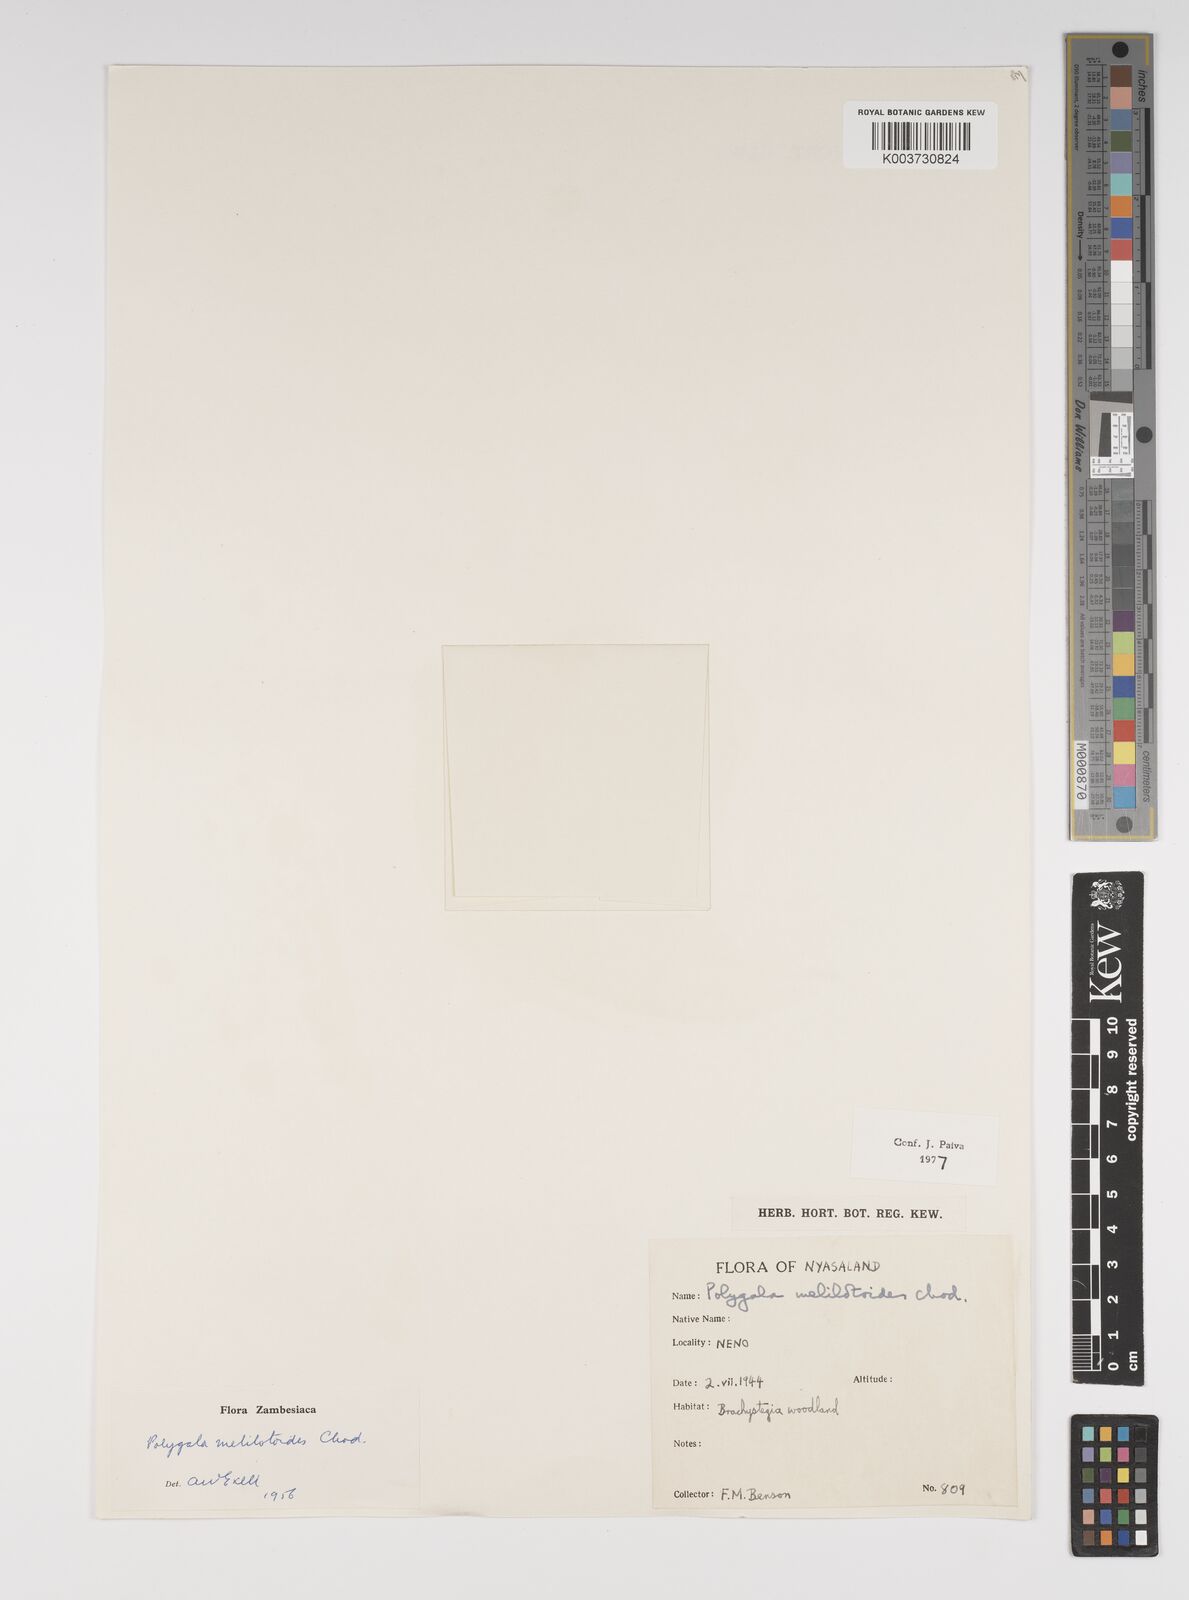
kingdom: Plantae
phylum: Tracheophyta
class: Magnoliopsida
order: Fabales
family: Polygalaceae
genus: Polygala
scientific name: Polygala melilotoides
